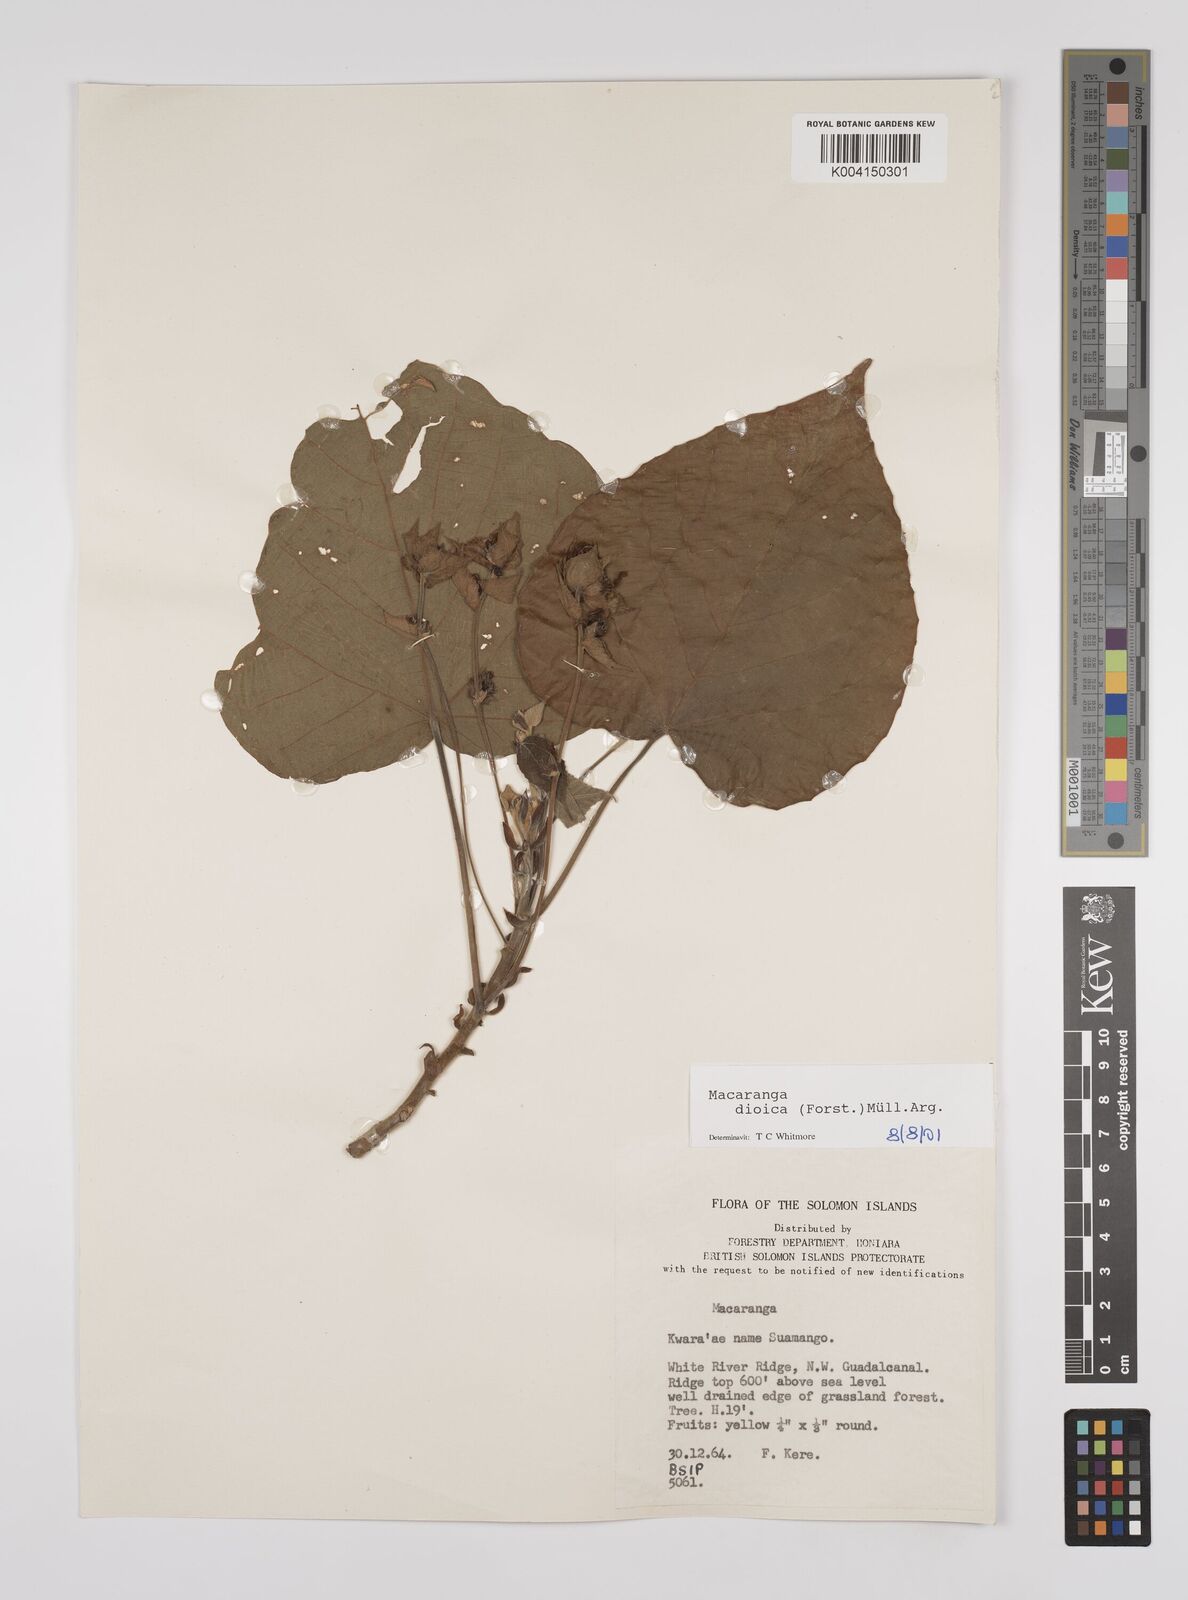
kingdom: Plantae
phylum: Tracheophyta
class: Magnoliopsida
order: Malpighiales
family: Euphorbiaceae
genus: Macaranga
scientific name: Macaranga dioica
